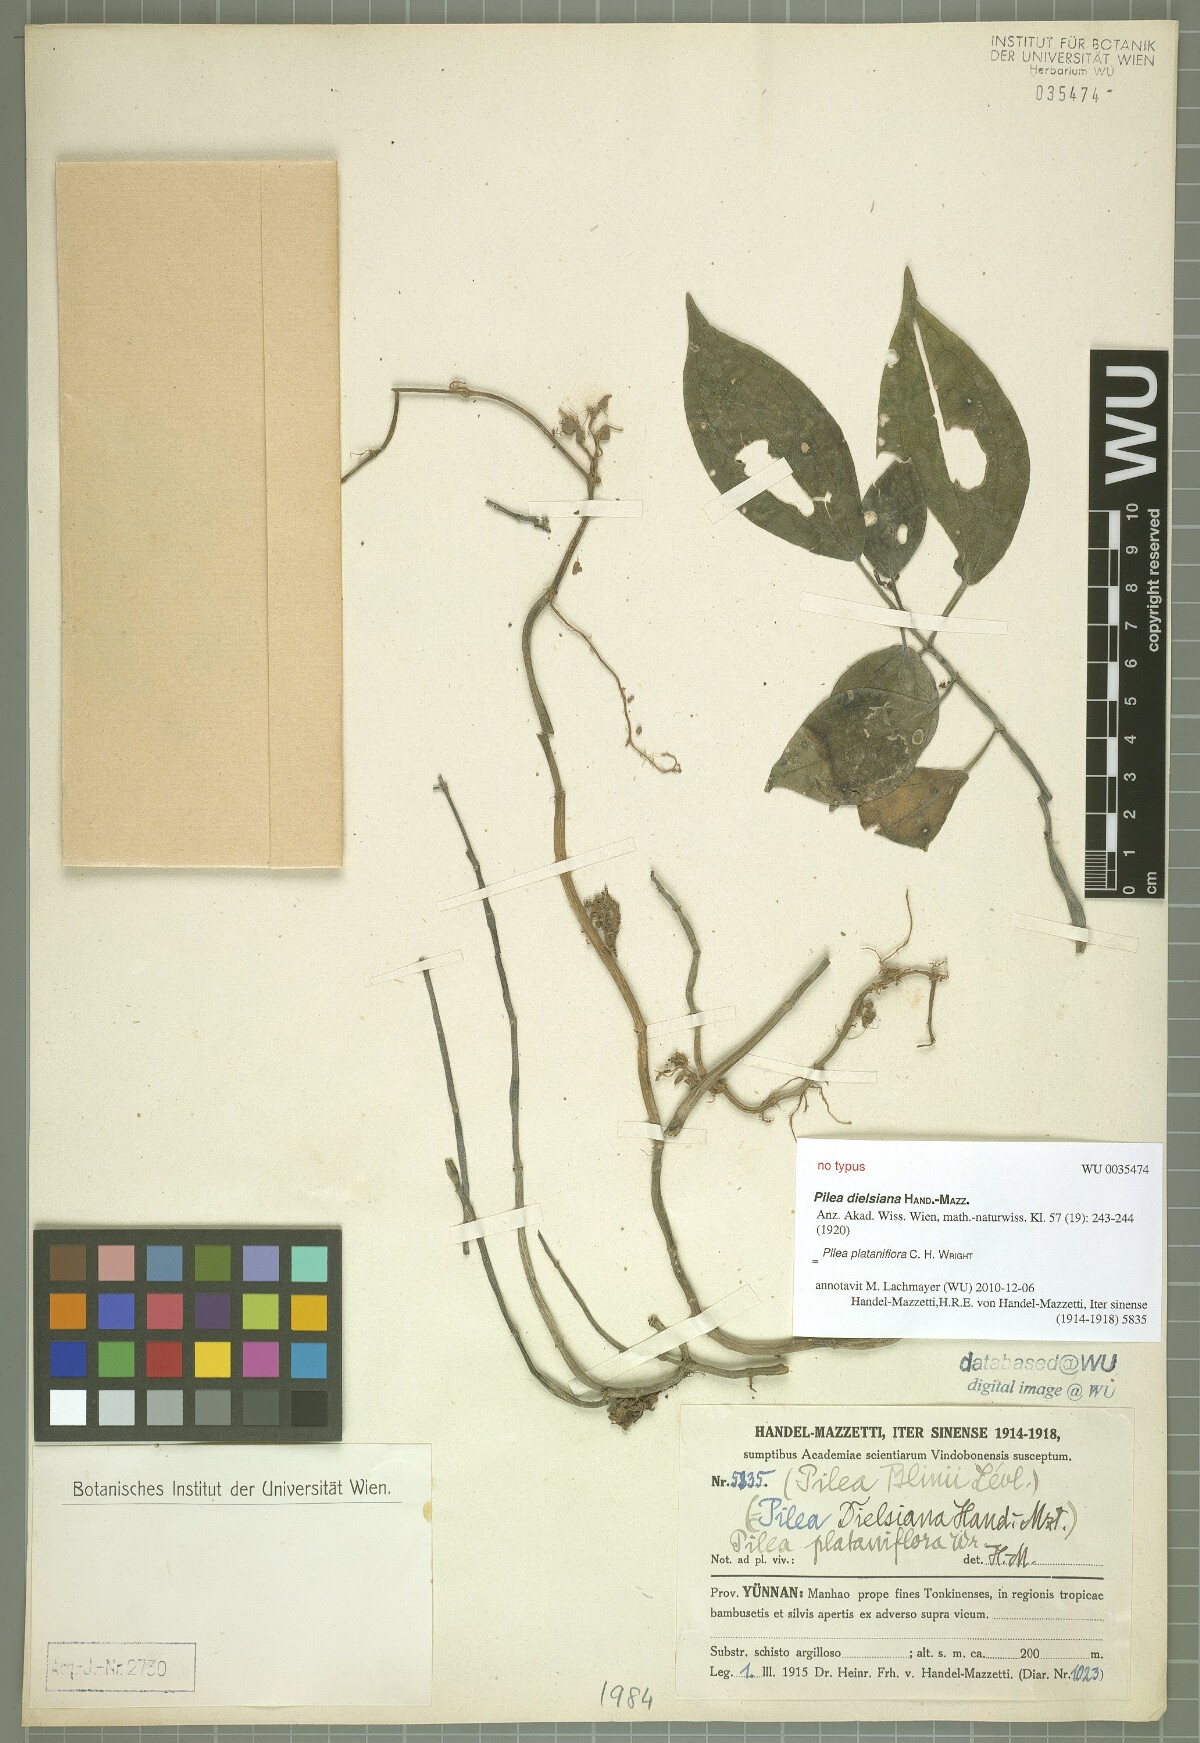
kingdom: Plantae
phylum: Tracheophyta
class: Magnoliopsida
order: Rosales
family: Urticaceae
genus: Pilea
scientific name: Pilea plataniflora
